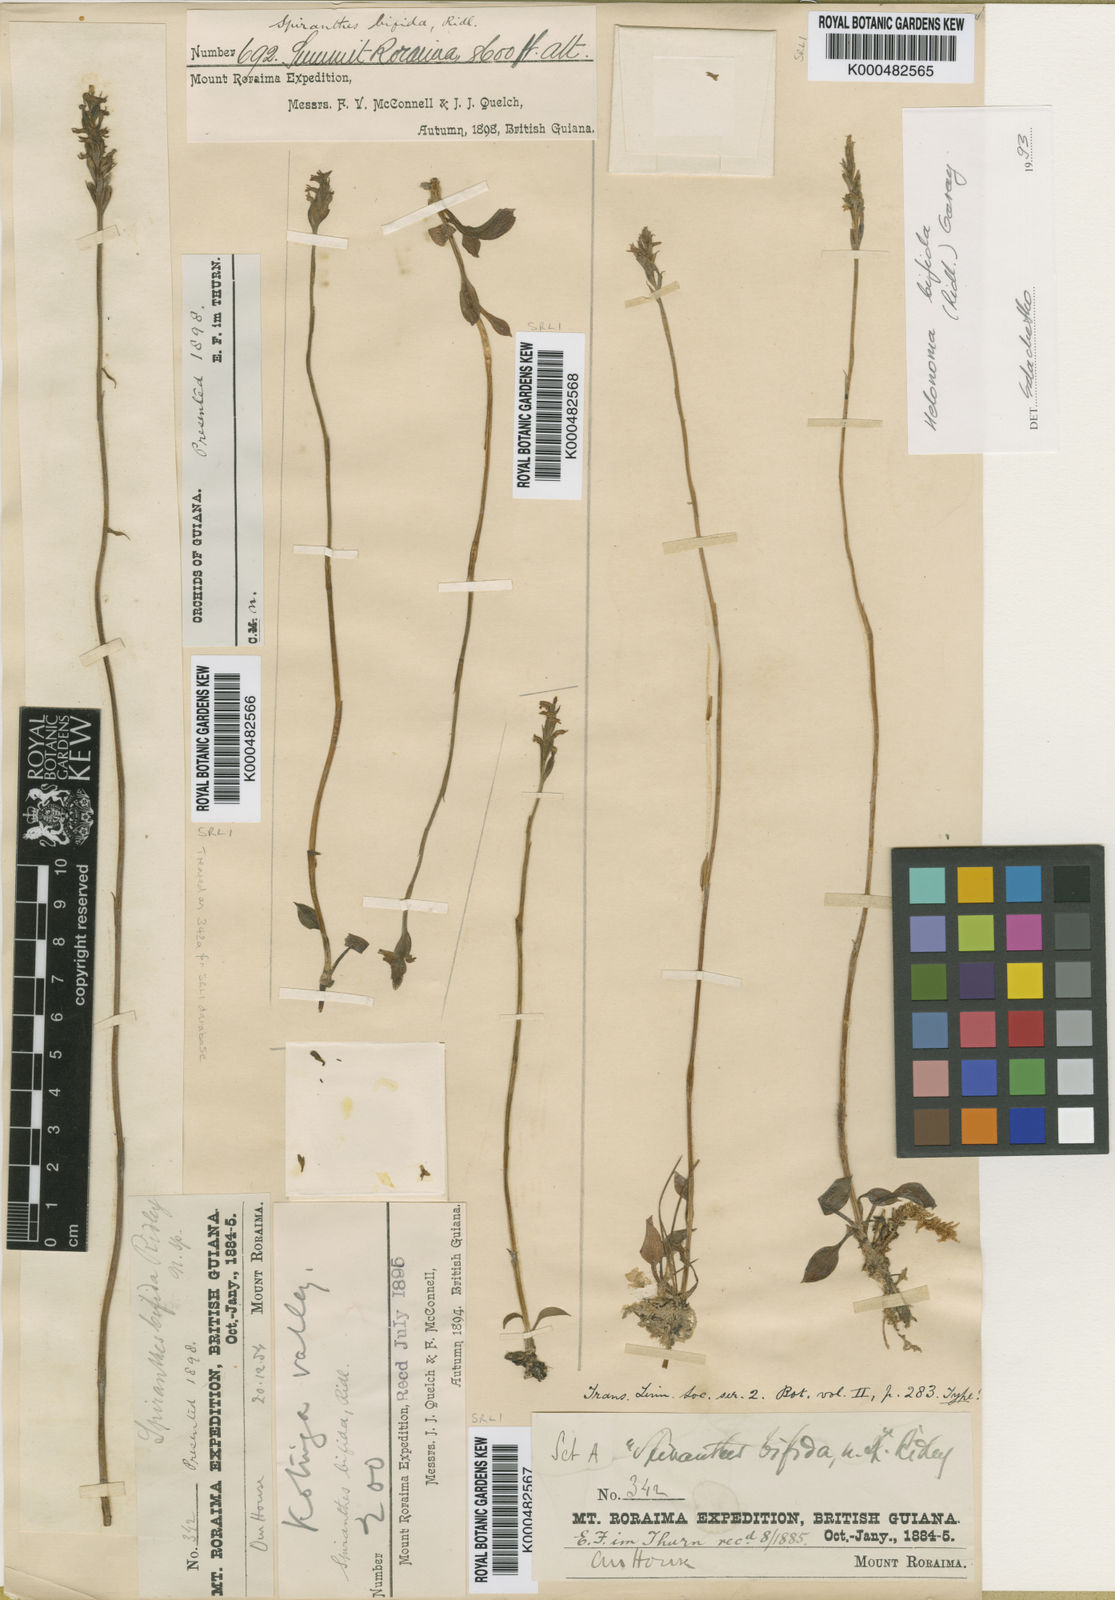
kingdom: Plantae
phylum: Tracheophyta
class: Liliopsida
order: Asparagales
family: Orchidaceae
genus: Helonoma
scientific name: Helonoma bifida
